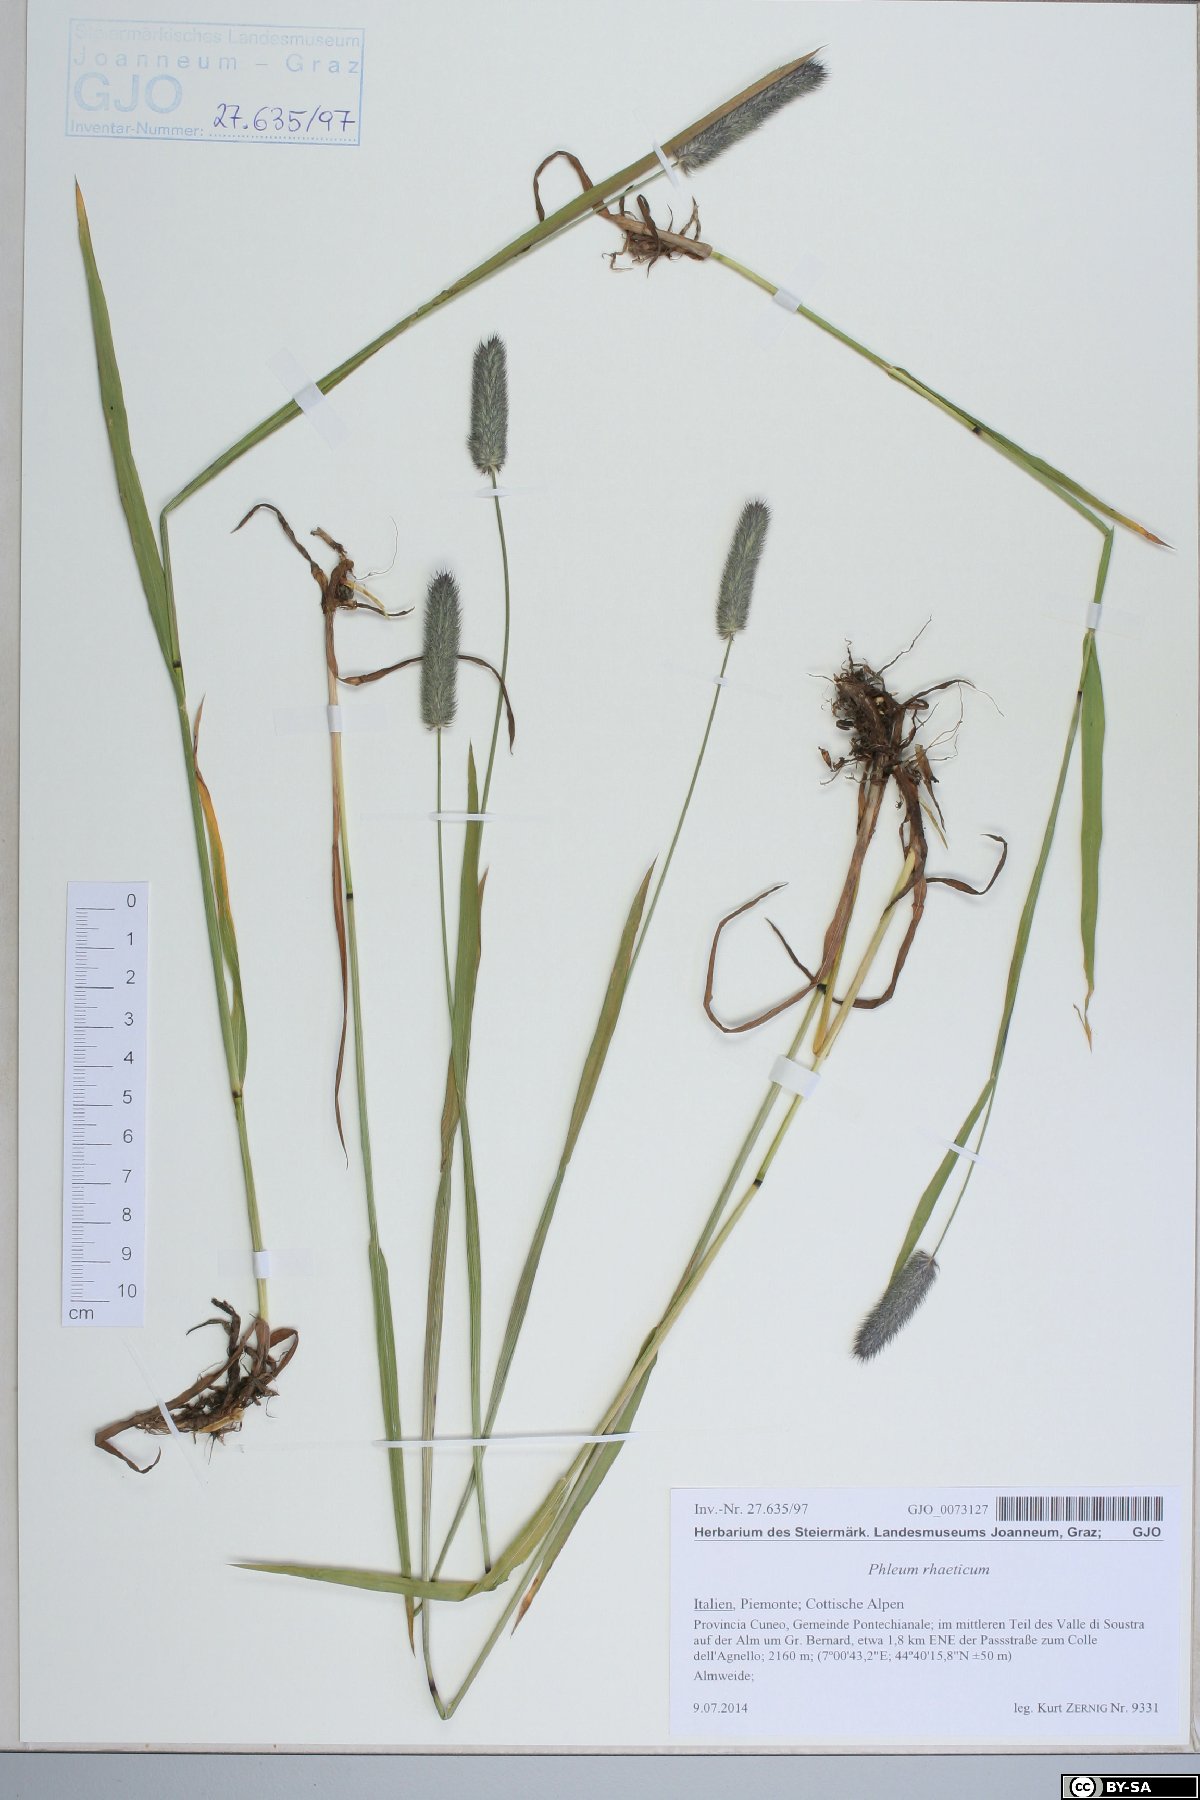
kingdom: Plantae
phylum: Tracheophyta
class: Liliopsida
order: Poales
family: Poaceae
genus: Phleum
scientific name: Phleum alpinum
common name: Alpine cat's-tail
